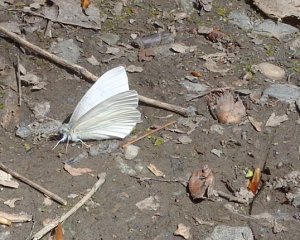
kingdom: Animalia
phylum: Arthropoda
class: Insecta
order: Lepidoptera
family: Pieridae
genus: Pieris
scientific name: Pieris virginiensis
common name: West Virginia White
